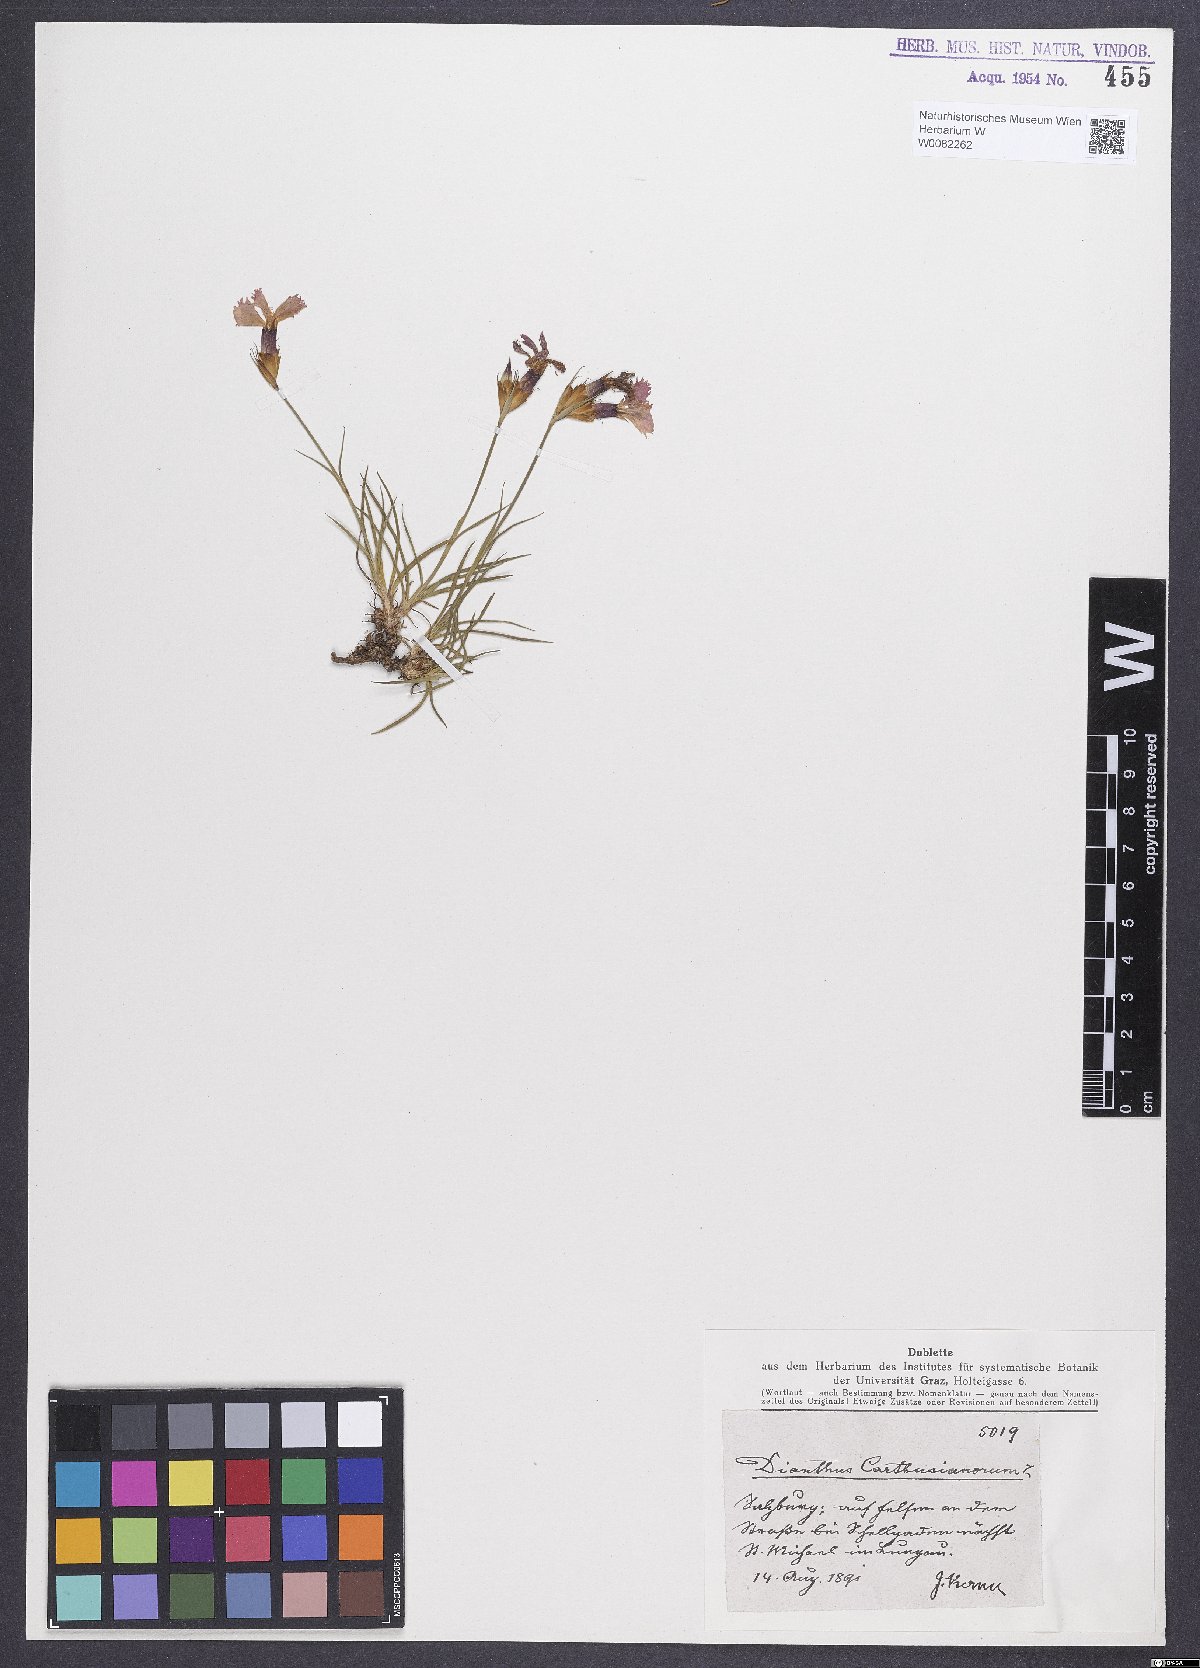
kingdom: Plantae
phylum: Tracheophyta
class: Magnoliopsida
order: Caryophyllales
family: Caryophyllaceae
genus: Dianthus
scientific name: Dianthus carthusianorum
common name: Carthusian pink
